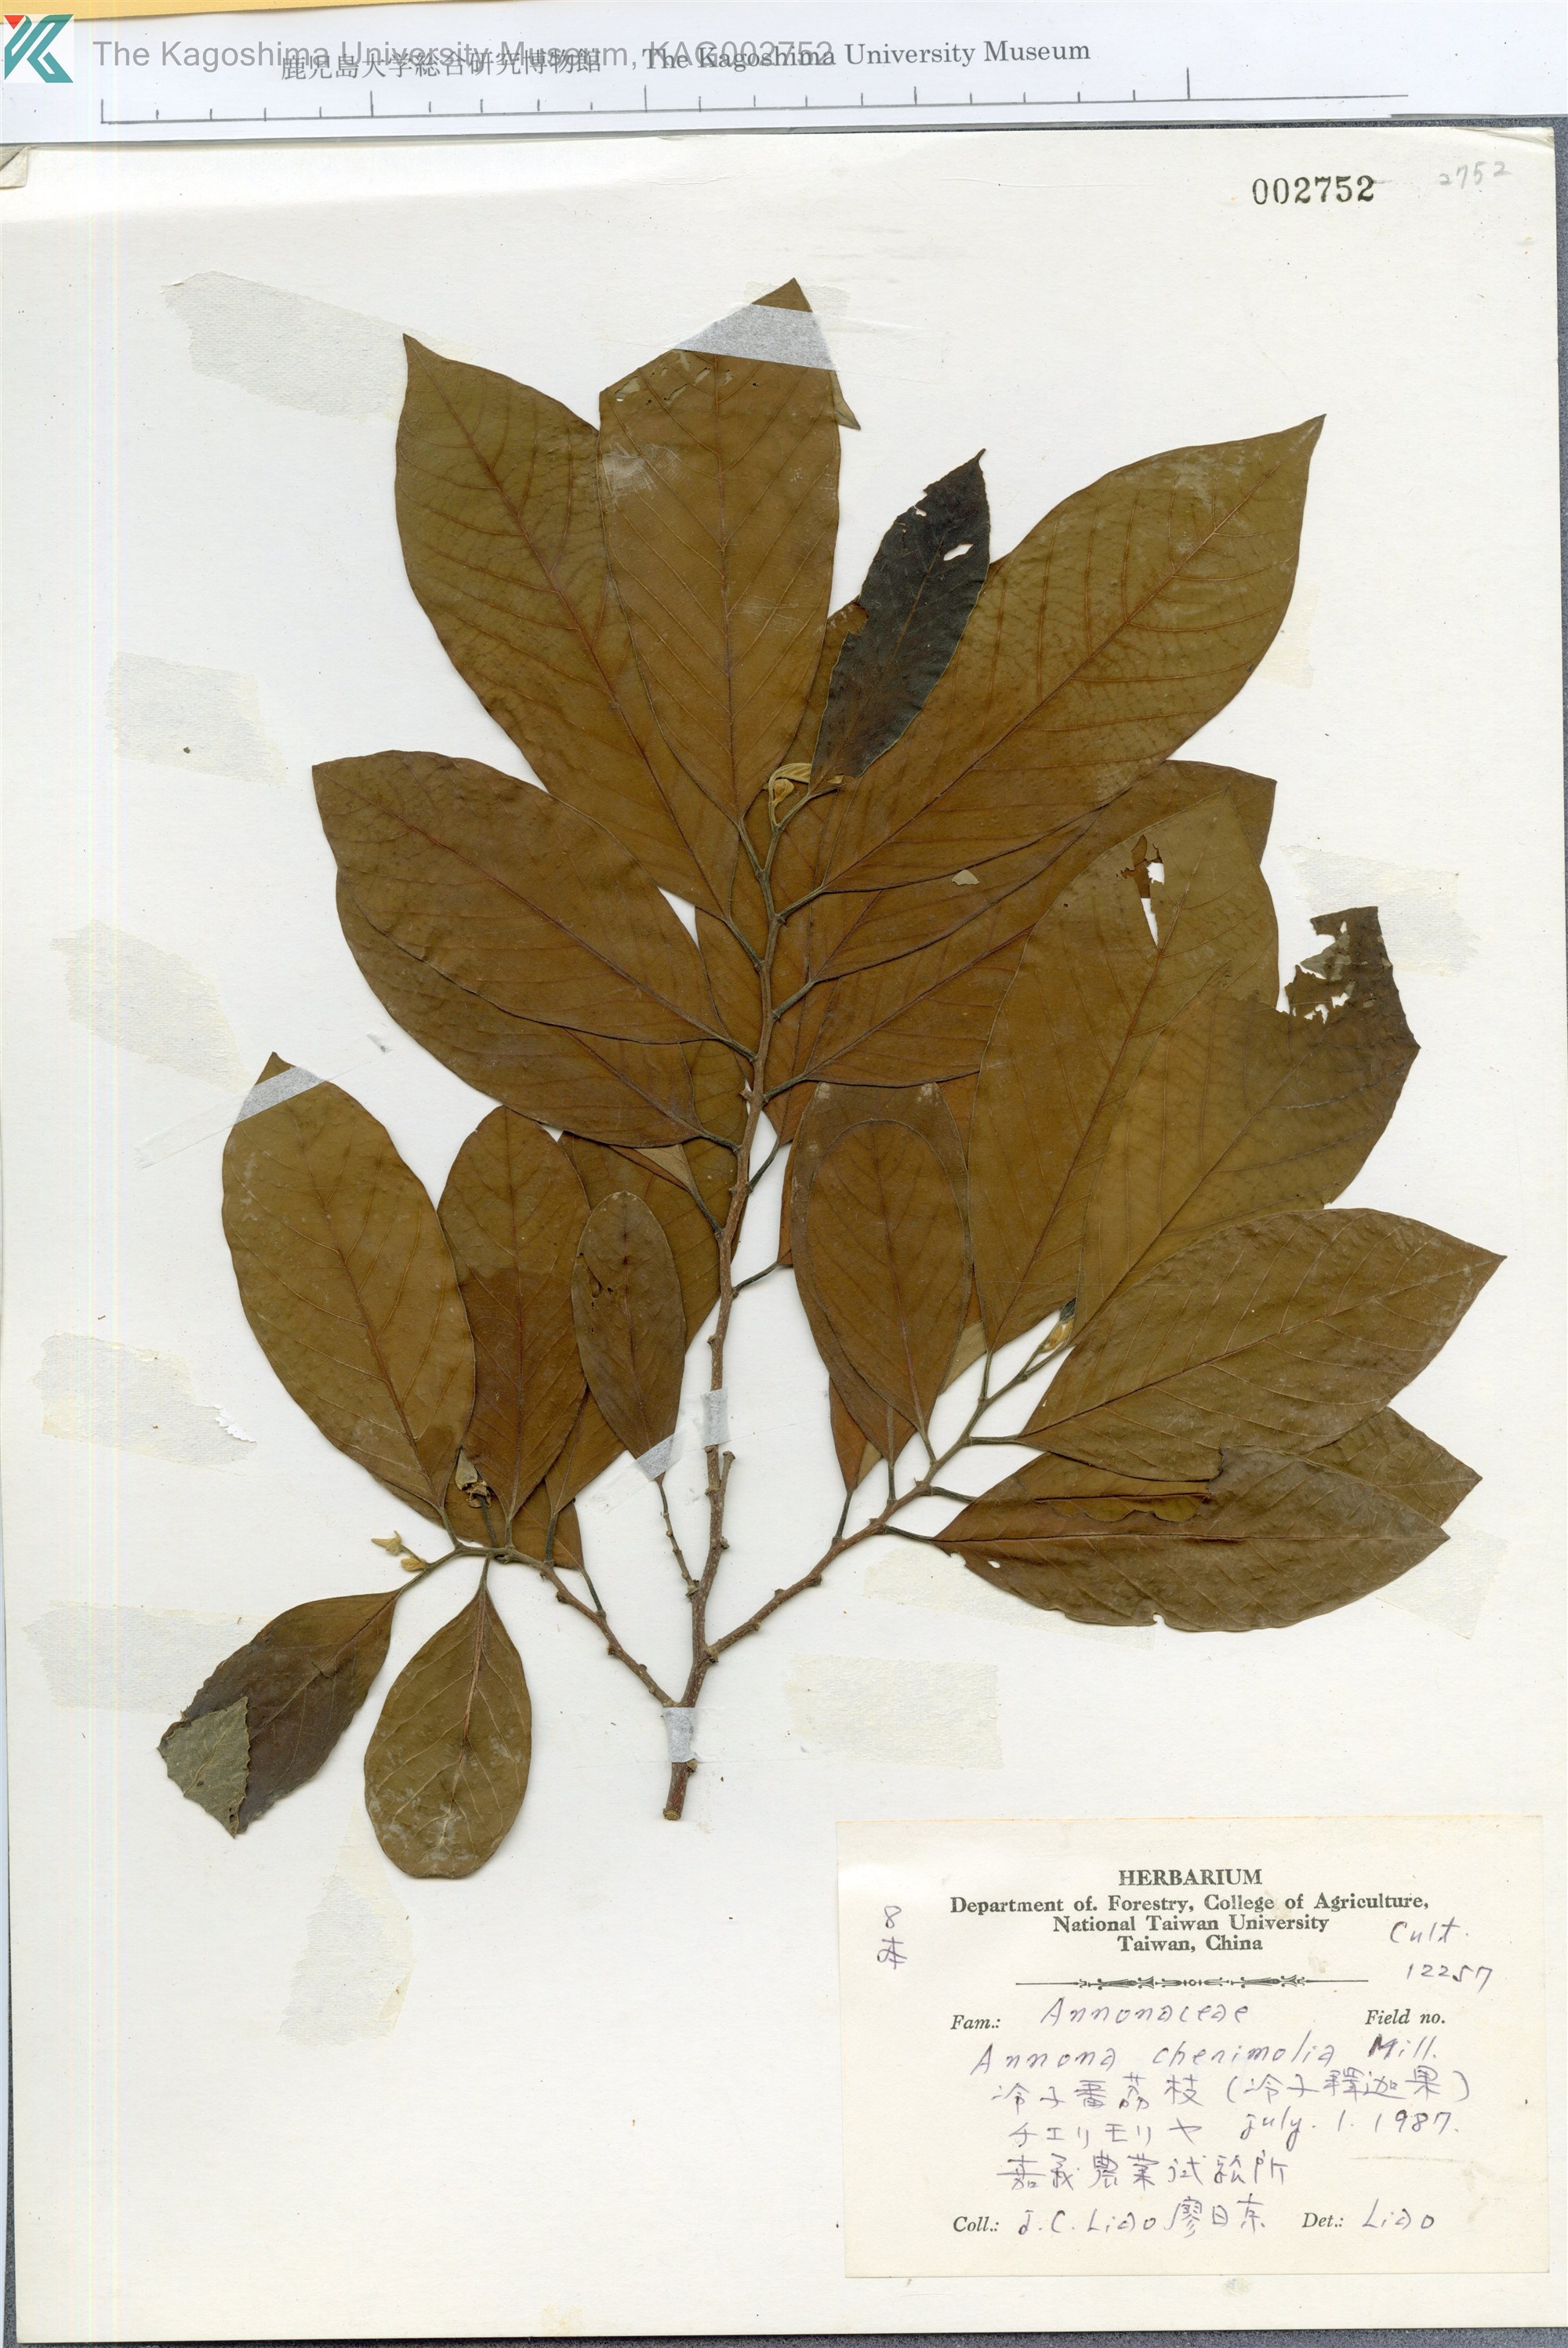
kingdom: Plantae
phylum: Tracheophyta
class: Magnoliopsida
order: Magnoliales
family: Annonaceae
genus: Annona
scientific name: Annona cherimolia
